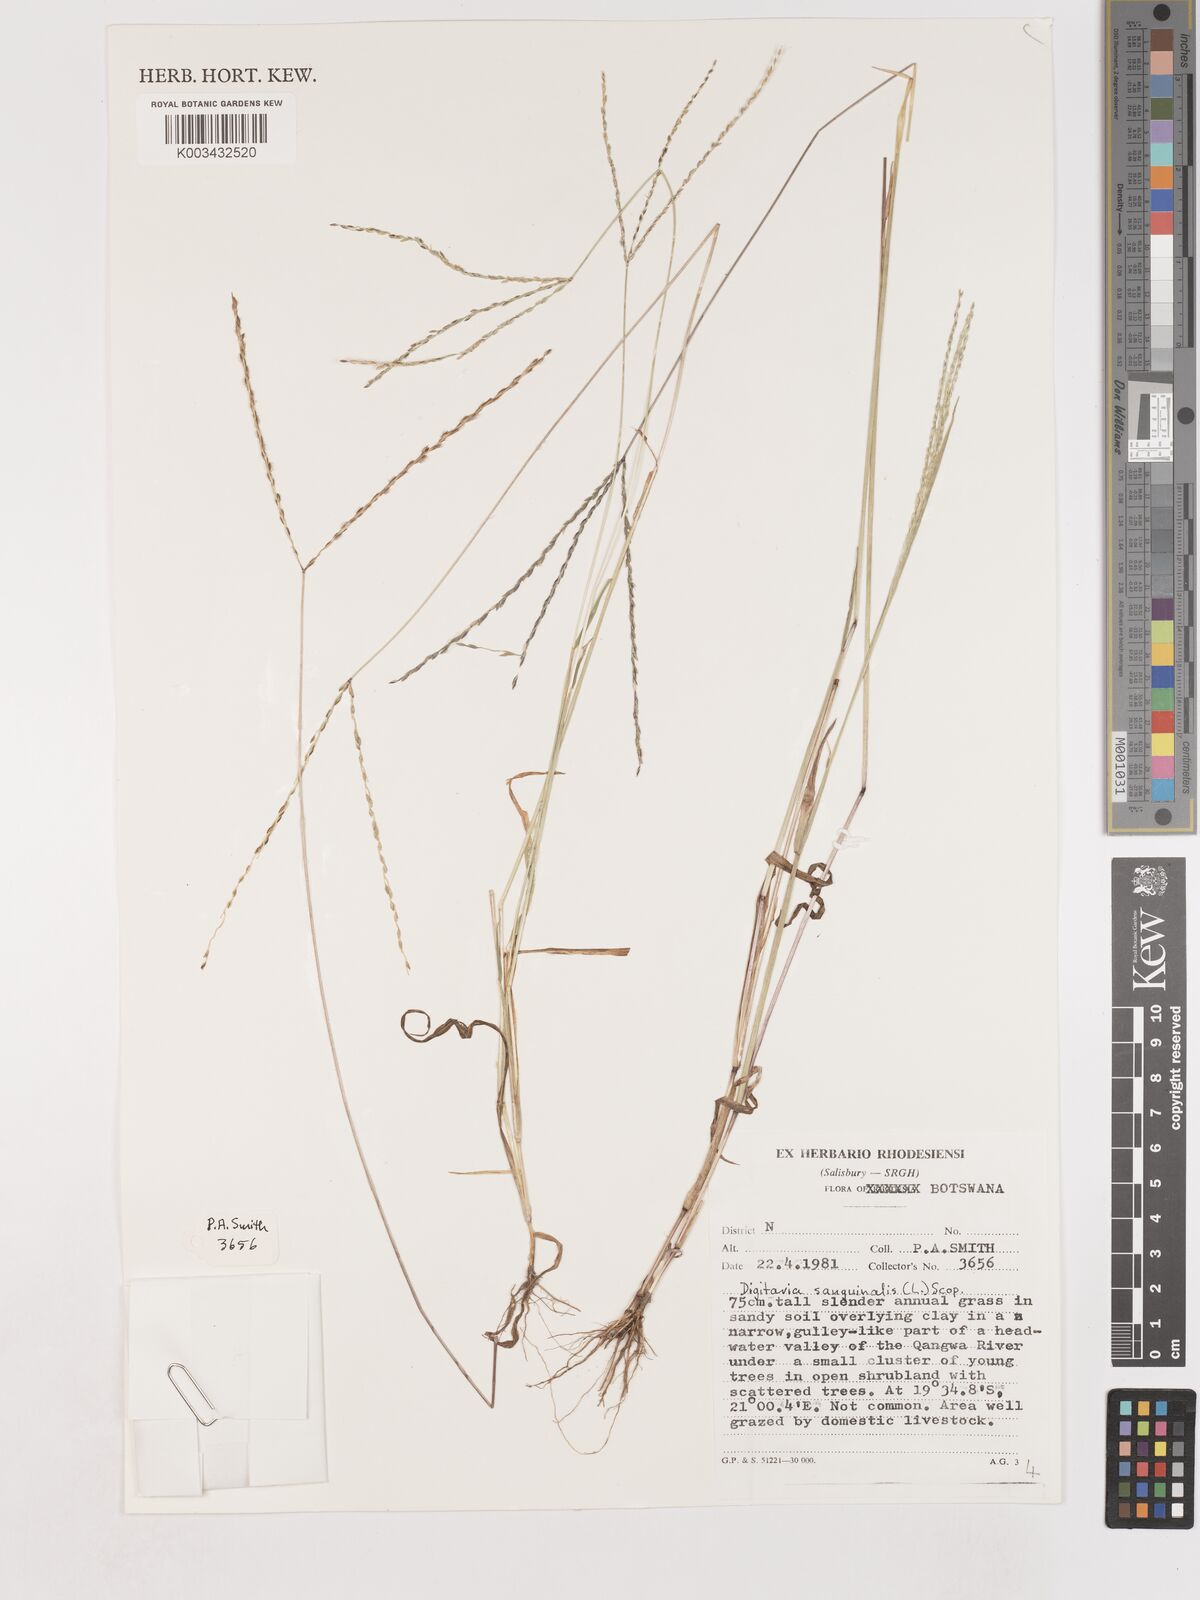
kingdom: Plantae
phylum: Tracheophyta
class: Liliopsida
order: Poales
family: Poaceae
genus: Digitaria
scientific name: Digitaria sanguinalis
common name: Hairy crabgrass
